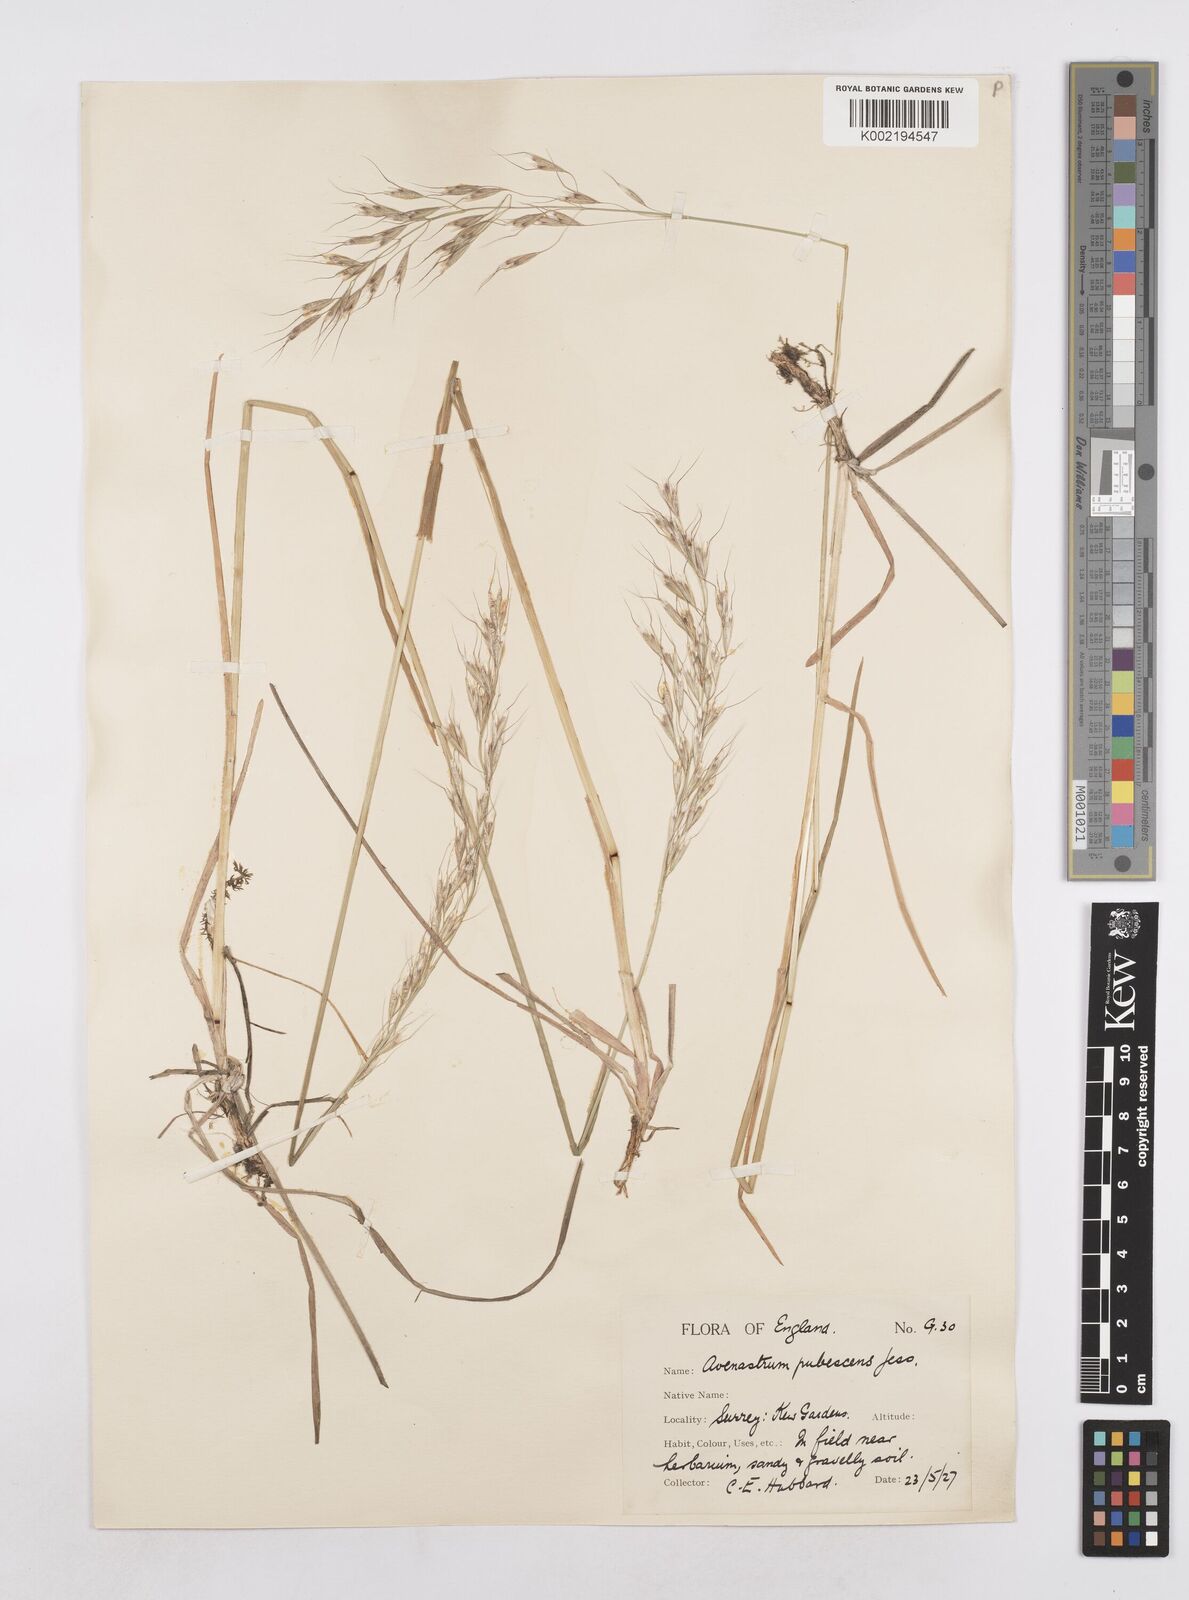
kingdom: Plantae
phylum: Tracheophyta
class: Liliopsida
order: Poales
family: Poaceae
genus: Avenula
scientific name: Avenula pubescens
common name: Downy alpine oatgrass
